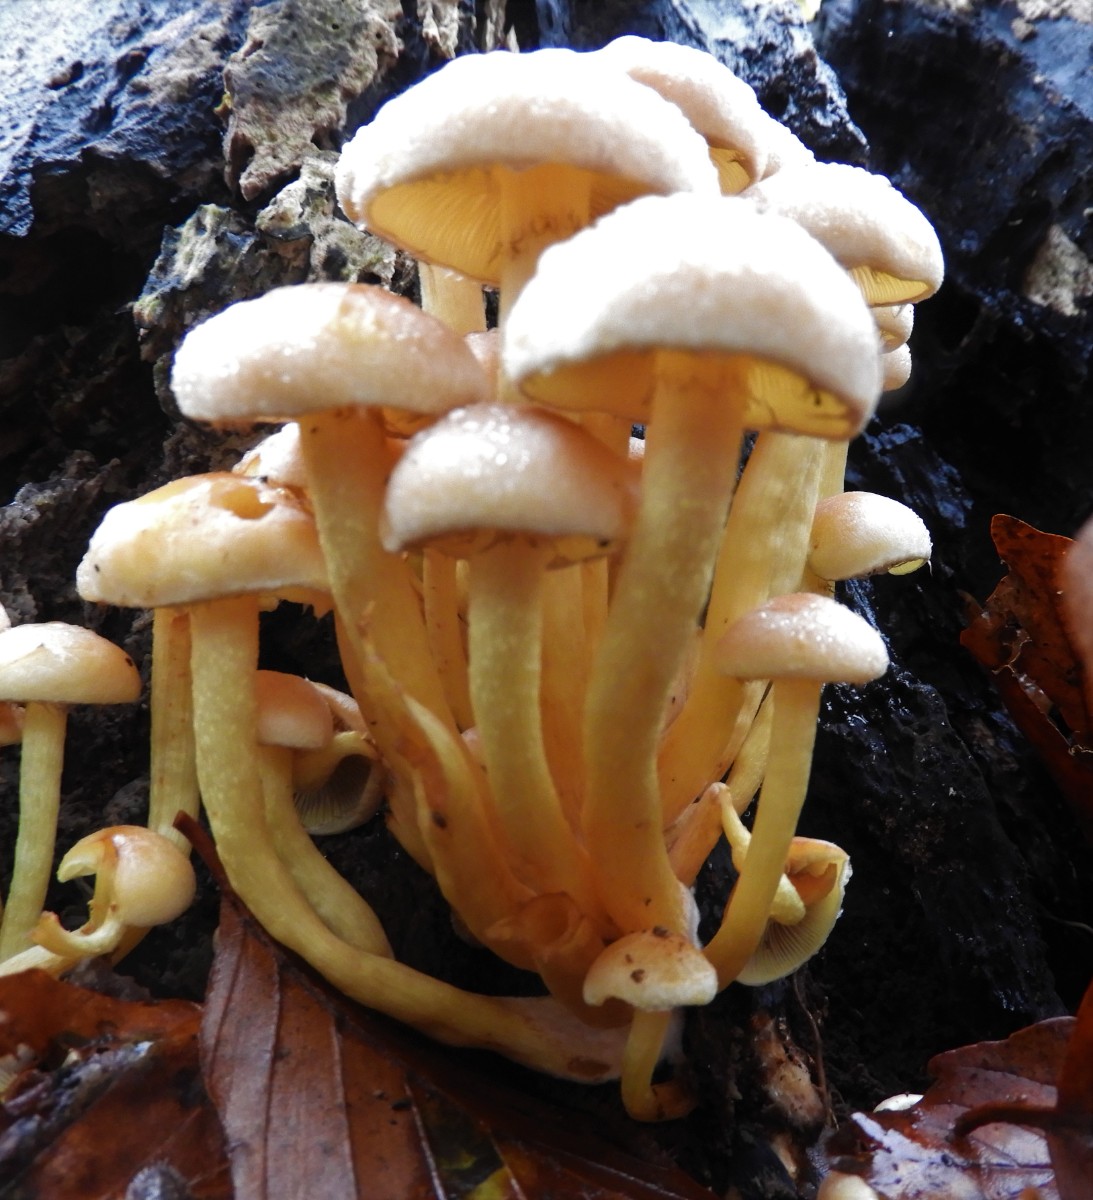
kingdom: Fungi
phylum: Basidiomycota
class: Agaricomycetes
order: Agaricales
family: Strophariaceae
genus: Hypholoma
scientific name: Hypholoma fasciculare
